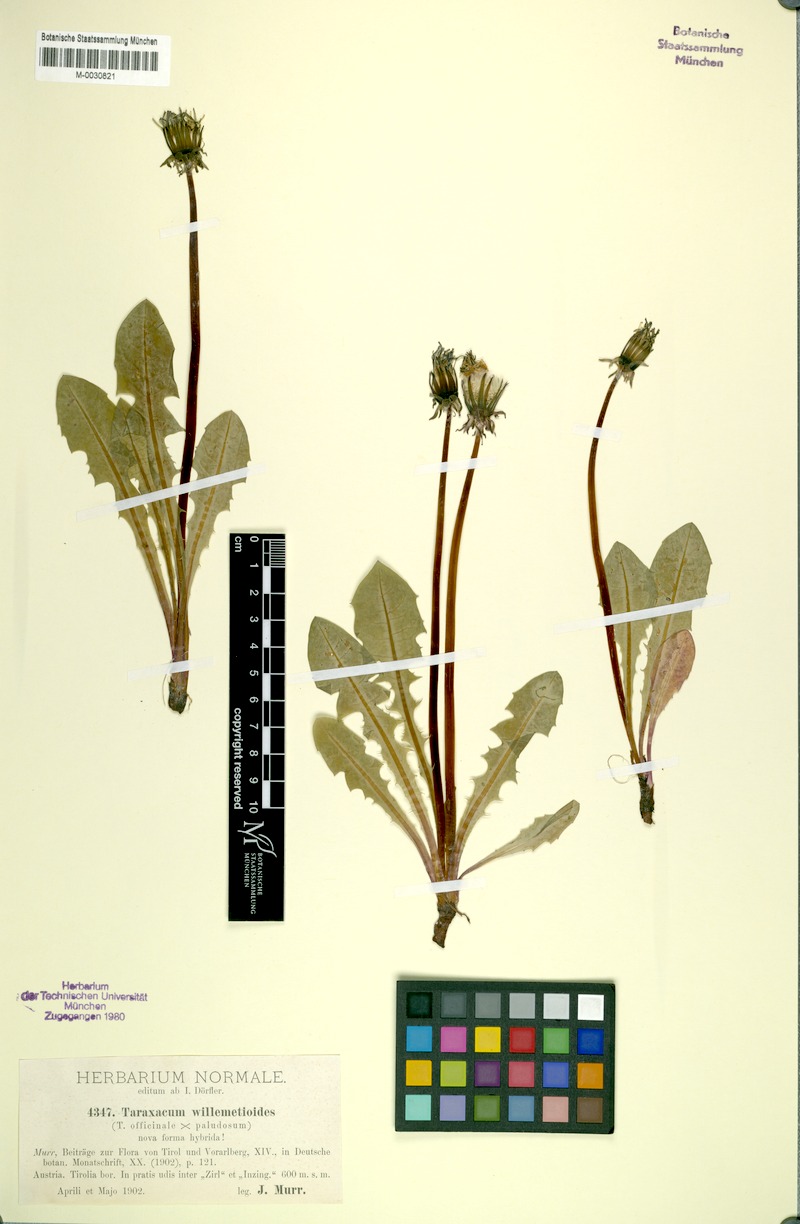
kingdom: Plantae
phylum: Tracheophyta
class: Magnoliopsida
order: Asterales
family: Asteraceae
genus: Taraxacum
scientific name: Taraxacum
